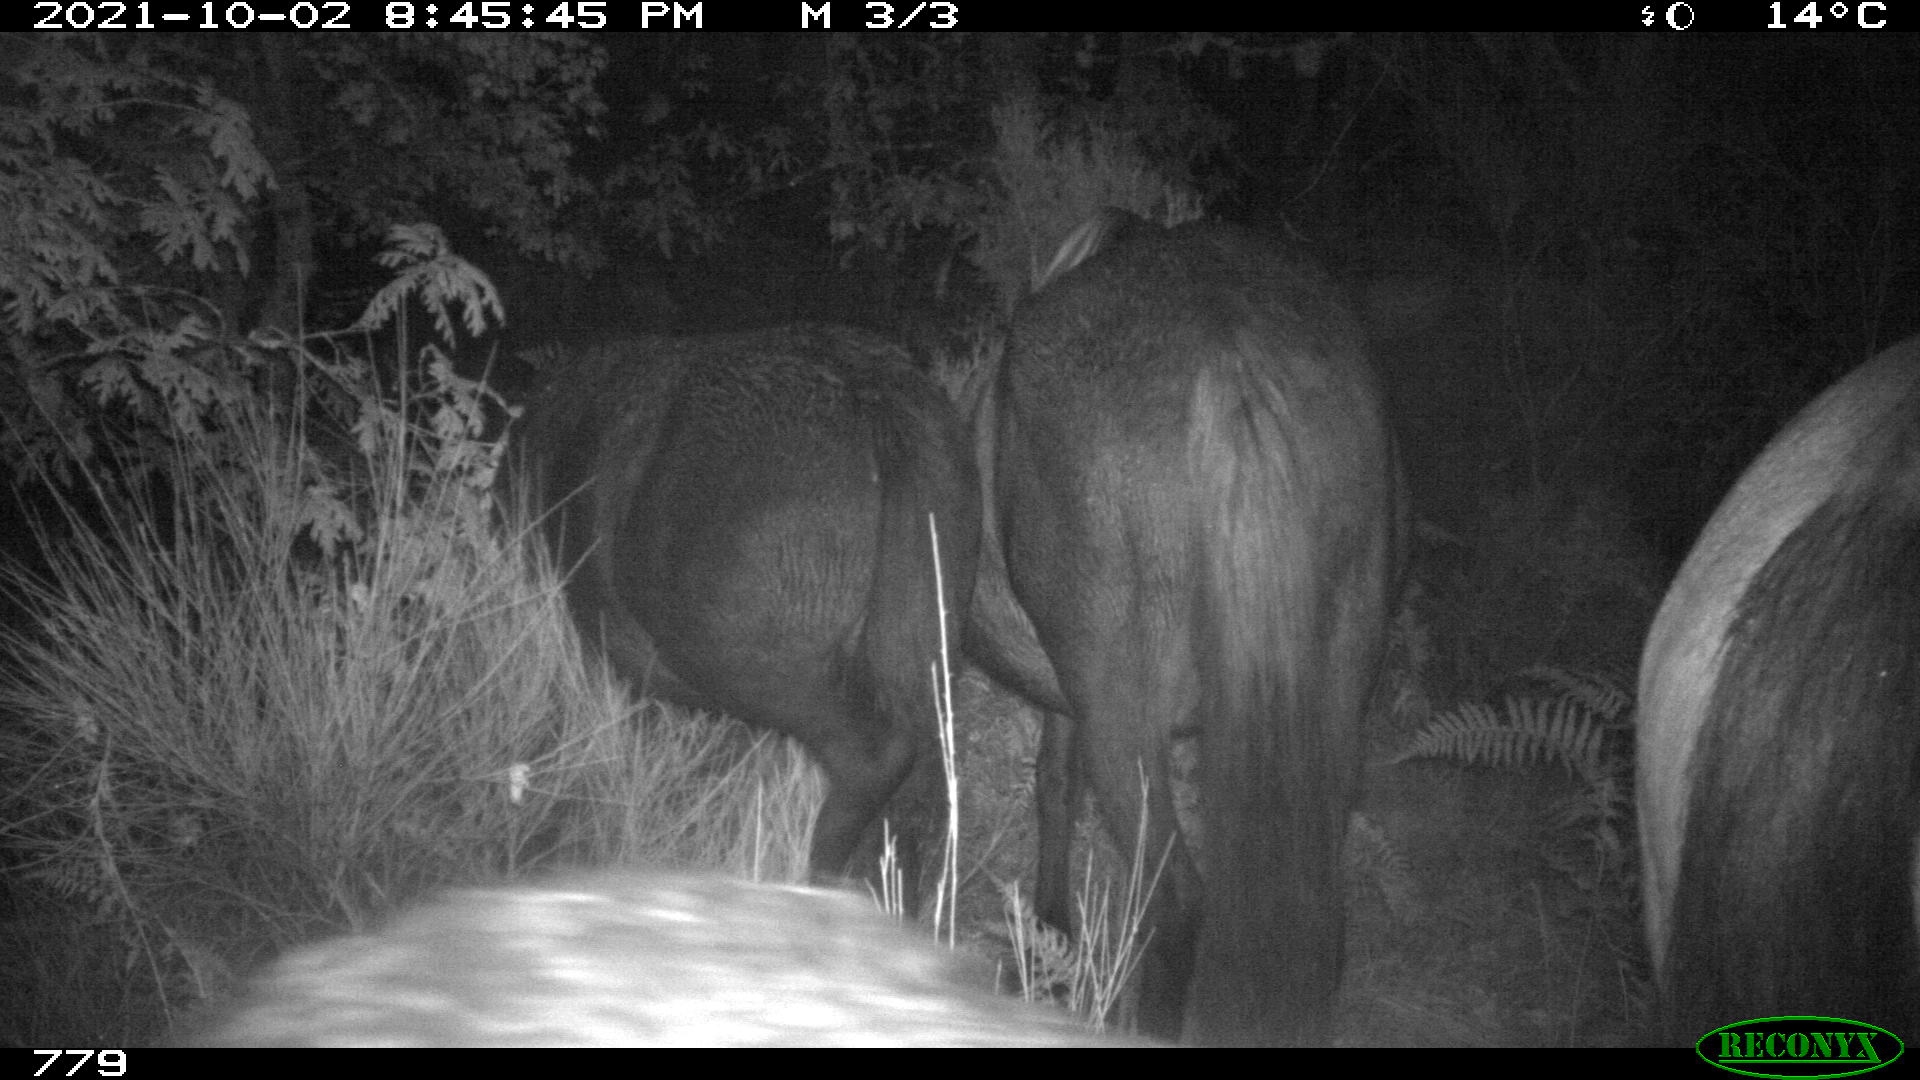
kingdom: Animalia
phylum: Chordata
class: Mammalia
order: Perissodactyla
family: Equidae
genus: Equus
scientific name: Equus caballus
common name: Horse
